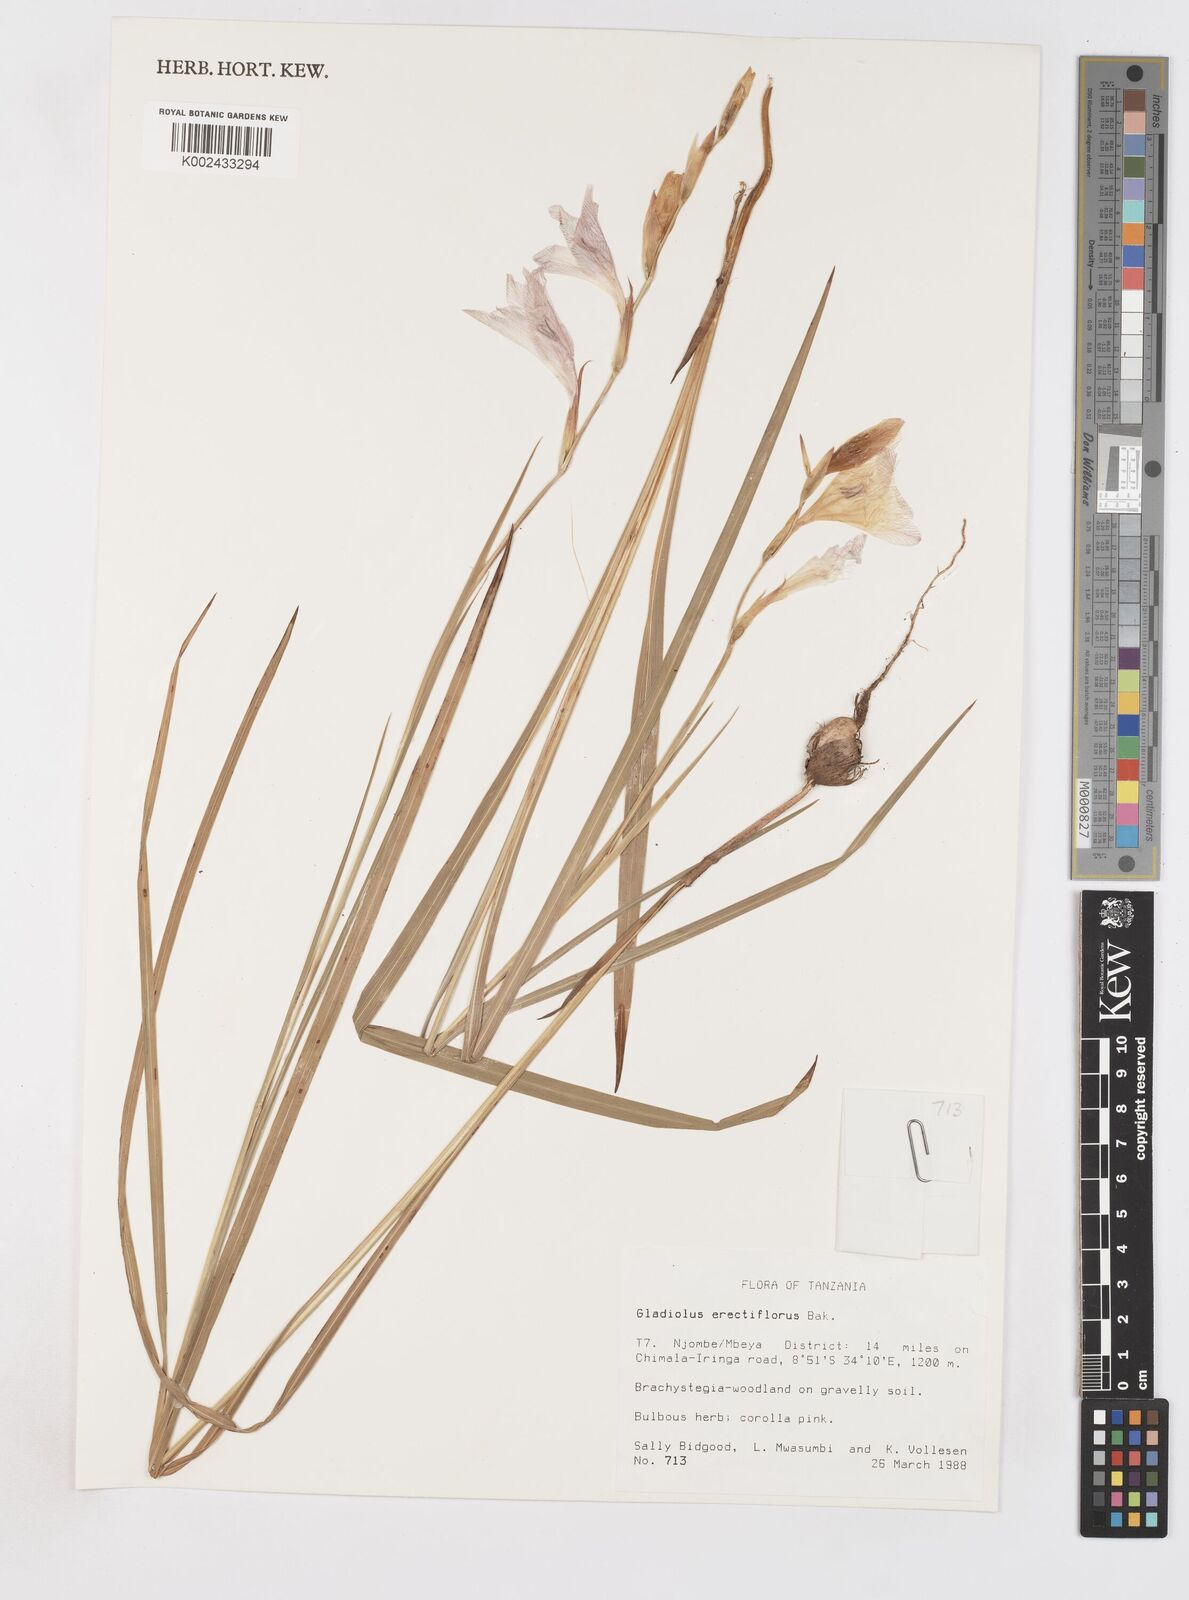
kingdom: Plantae
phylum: Tracheophyta
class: Liliopsida
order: Asparagales
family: Iridaceae
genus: Gladiolus
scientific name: Gladiolus erectiflorus
